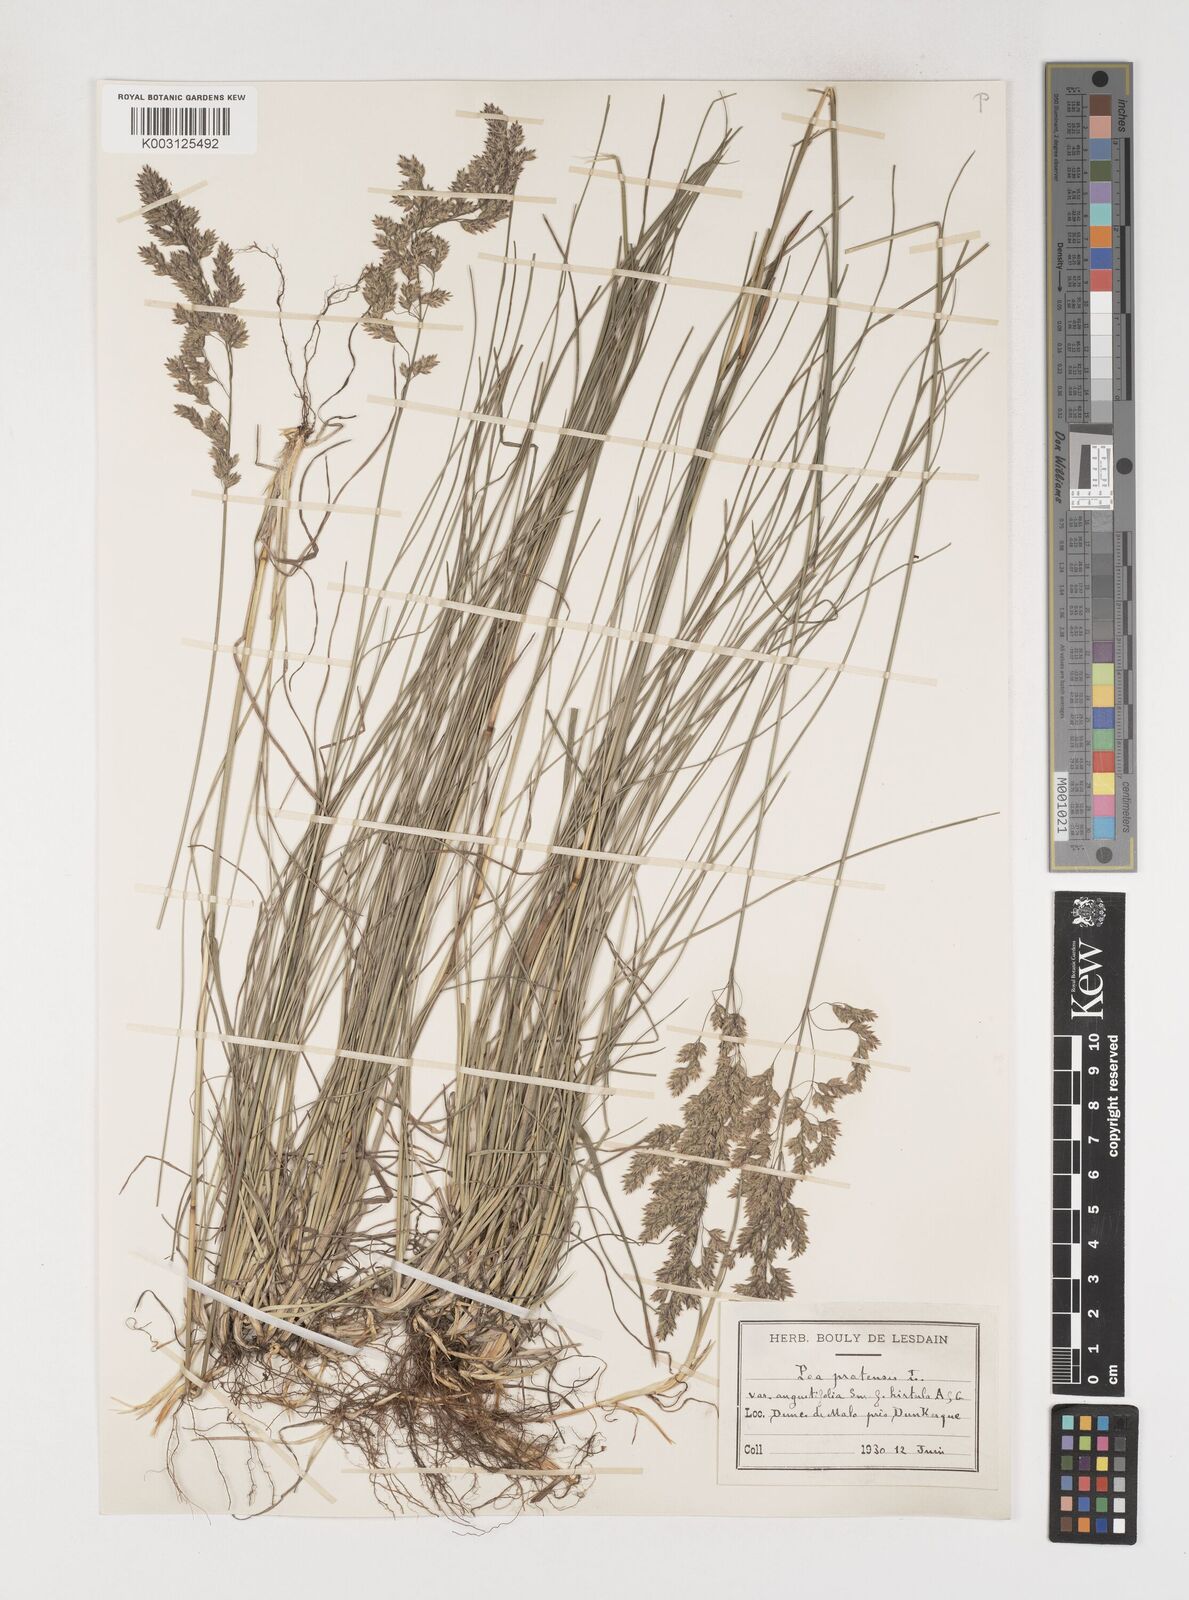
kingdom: Plantae
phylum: Tracheophyta
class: Liliopsida
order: Poales
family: Poaceae
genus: Poa
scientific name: Poa angustifolia
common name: Narrow-leaved meadow-grass
